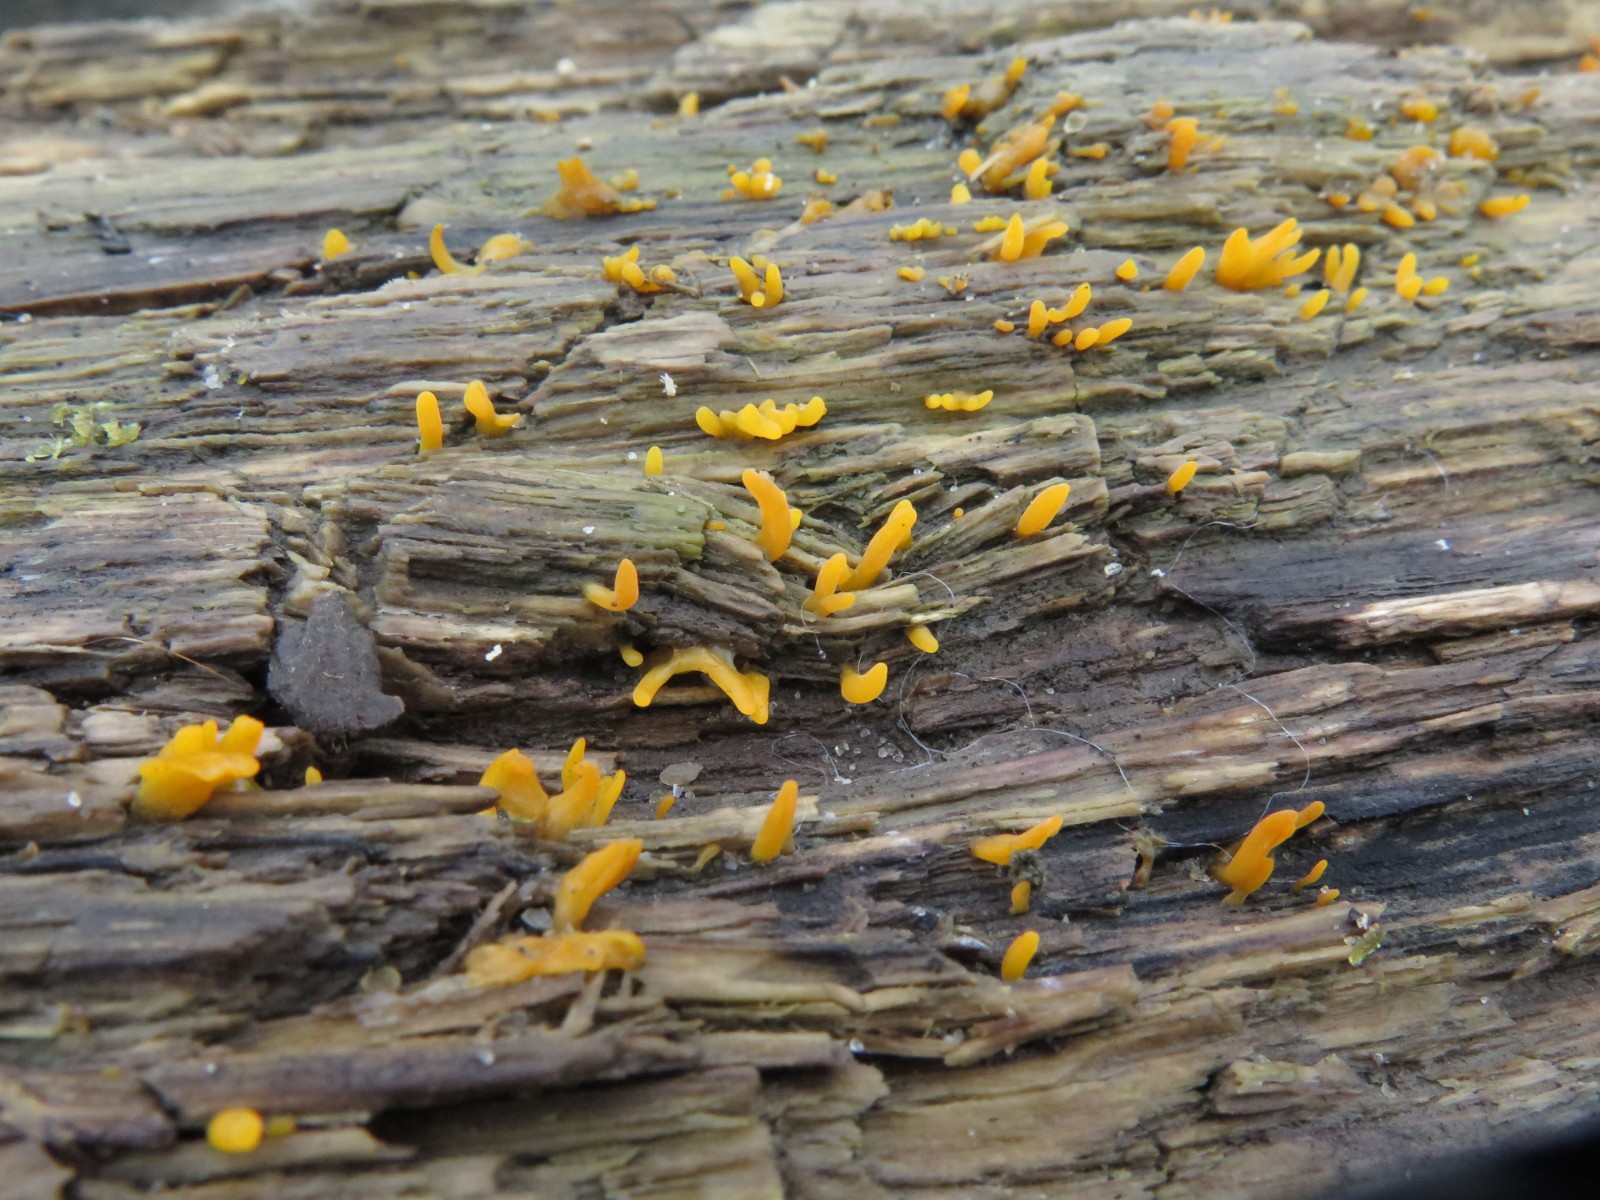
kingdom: Fungi
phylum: Basidiomycota
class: Dacrymycetes
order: Dacrymycetales
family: Dacrymycetaceae
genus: Calocera
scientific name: Calocera cornea
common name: liden guldgaffel
